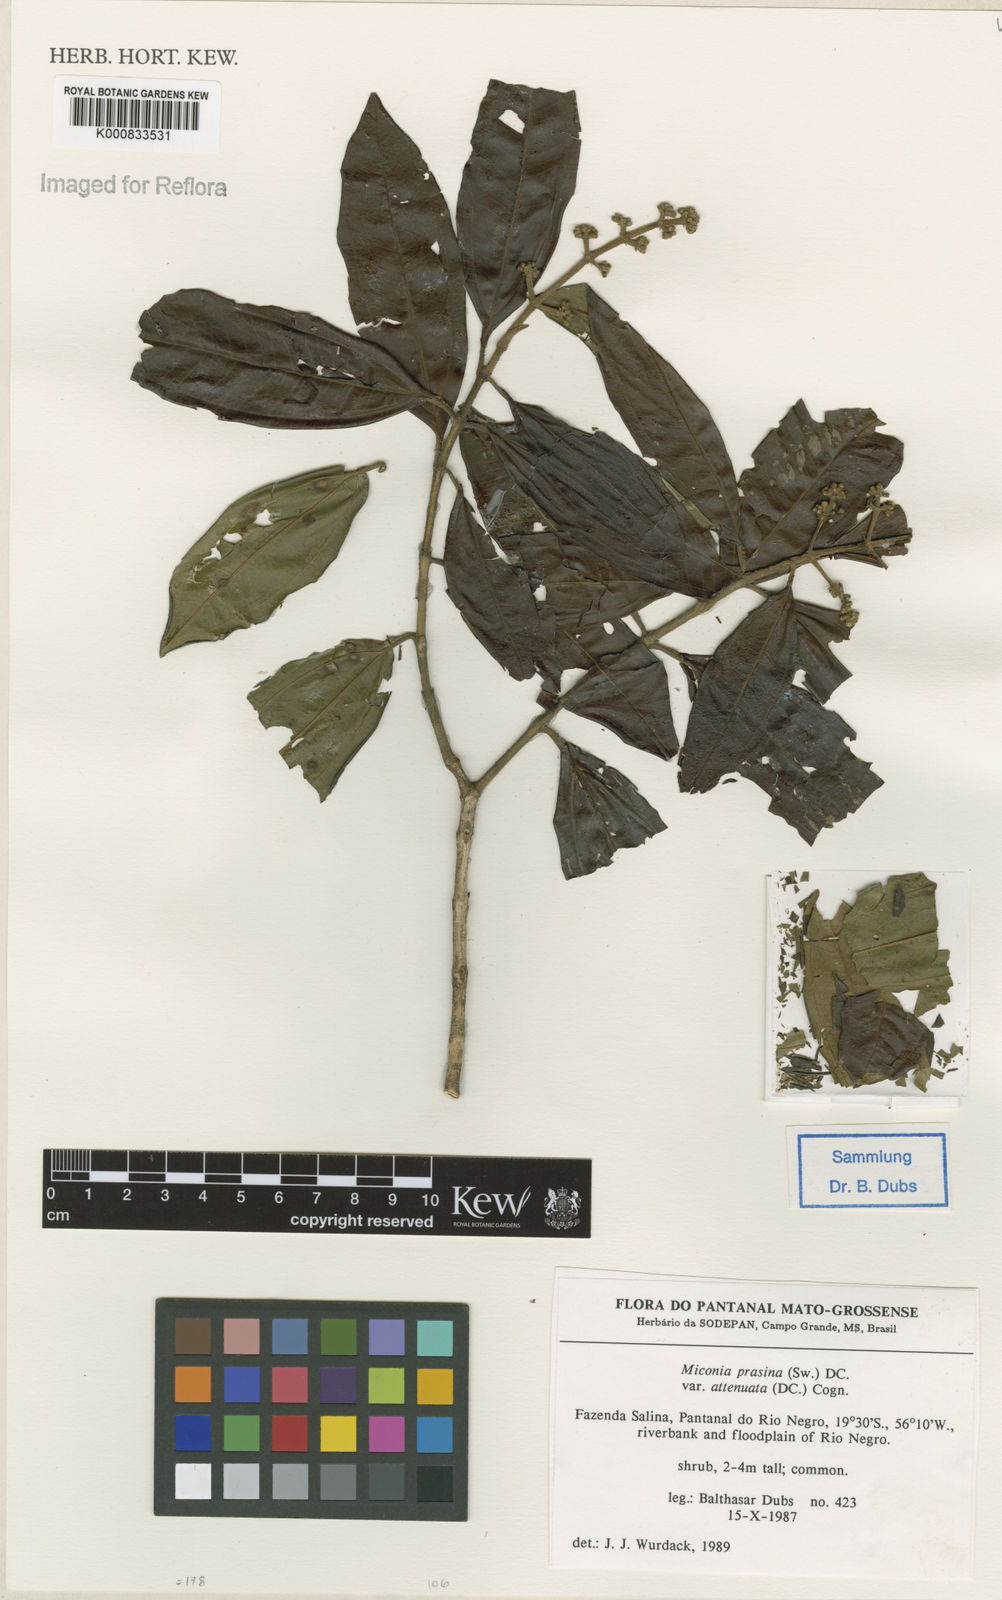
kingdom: Plantae
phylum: Tracheophyta
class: Magnoliopsida
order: Myrtales
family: Melastomataceae
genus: Miconia
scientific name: Miconia prasina
